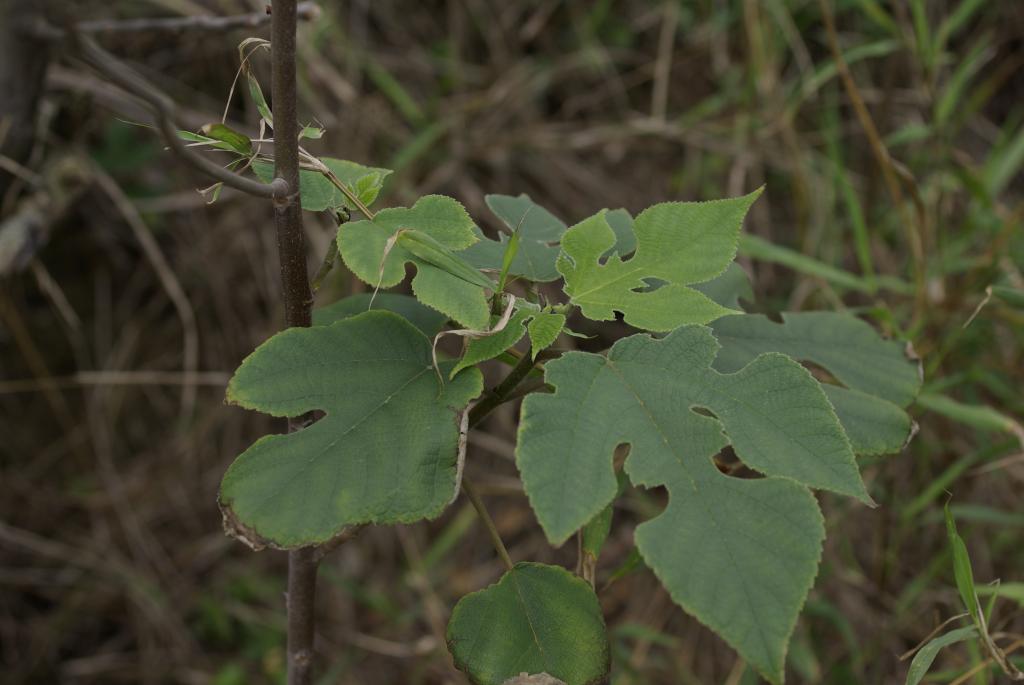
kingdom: Plantae
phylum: Tracheophyta
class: Magnoliopsida
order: Rosales
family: Moraceae
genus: Broussonetia
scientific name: Broussonetia papyrifera
